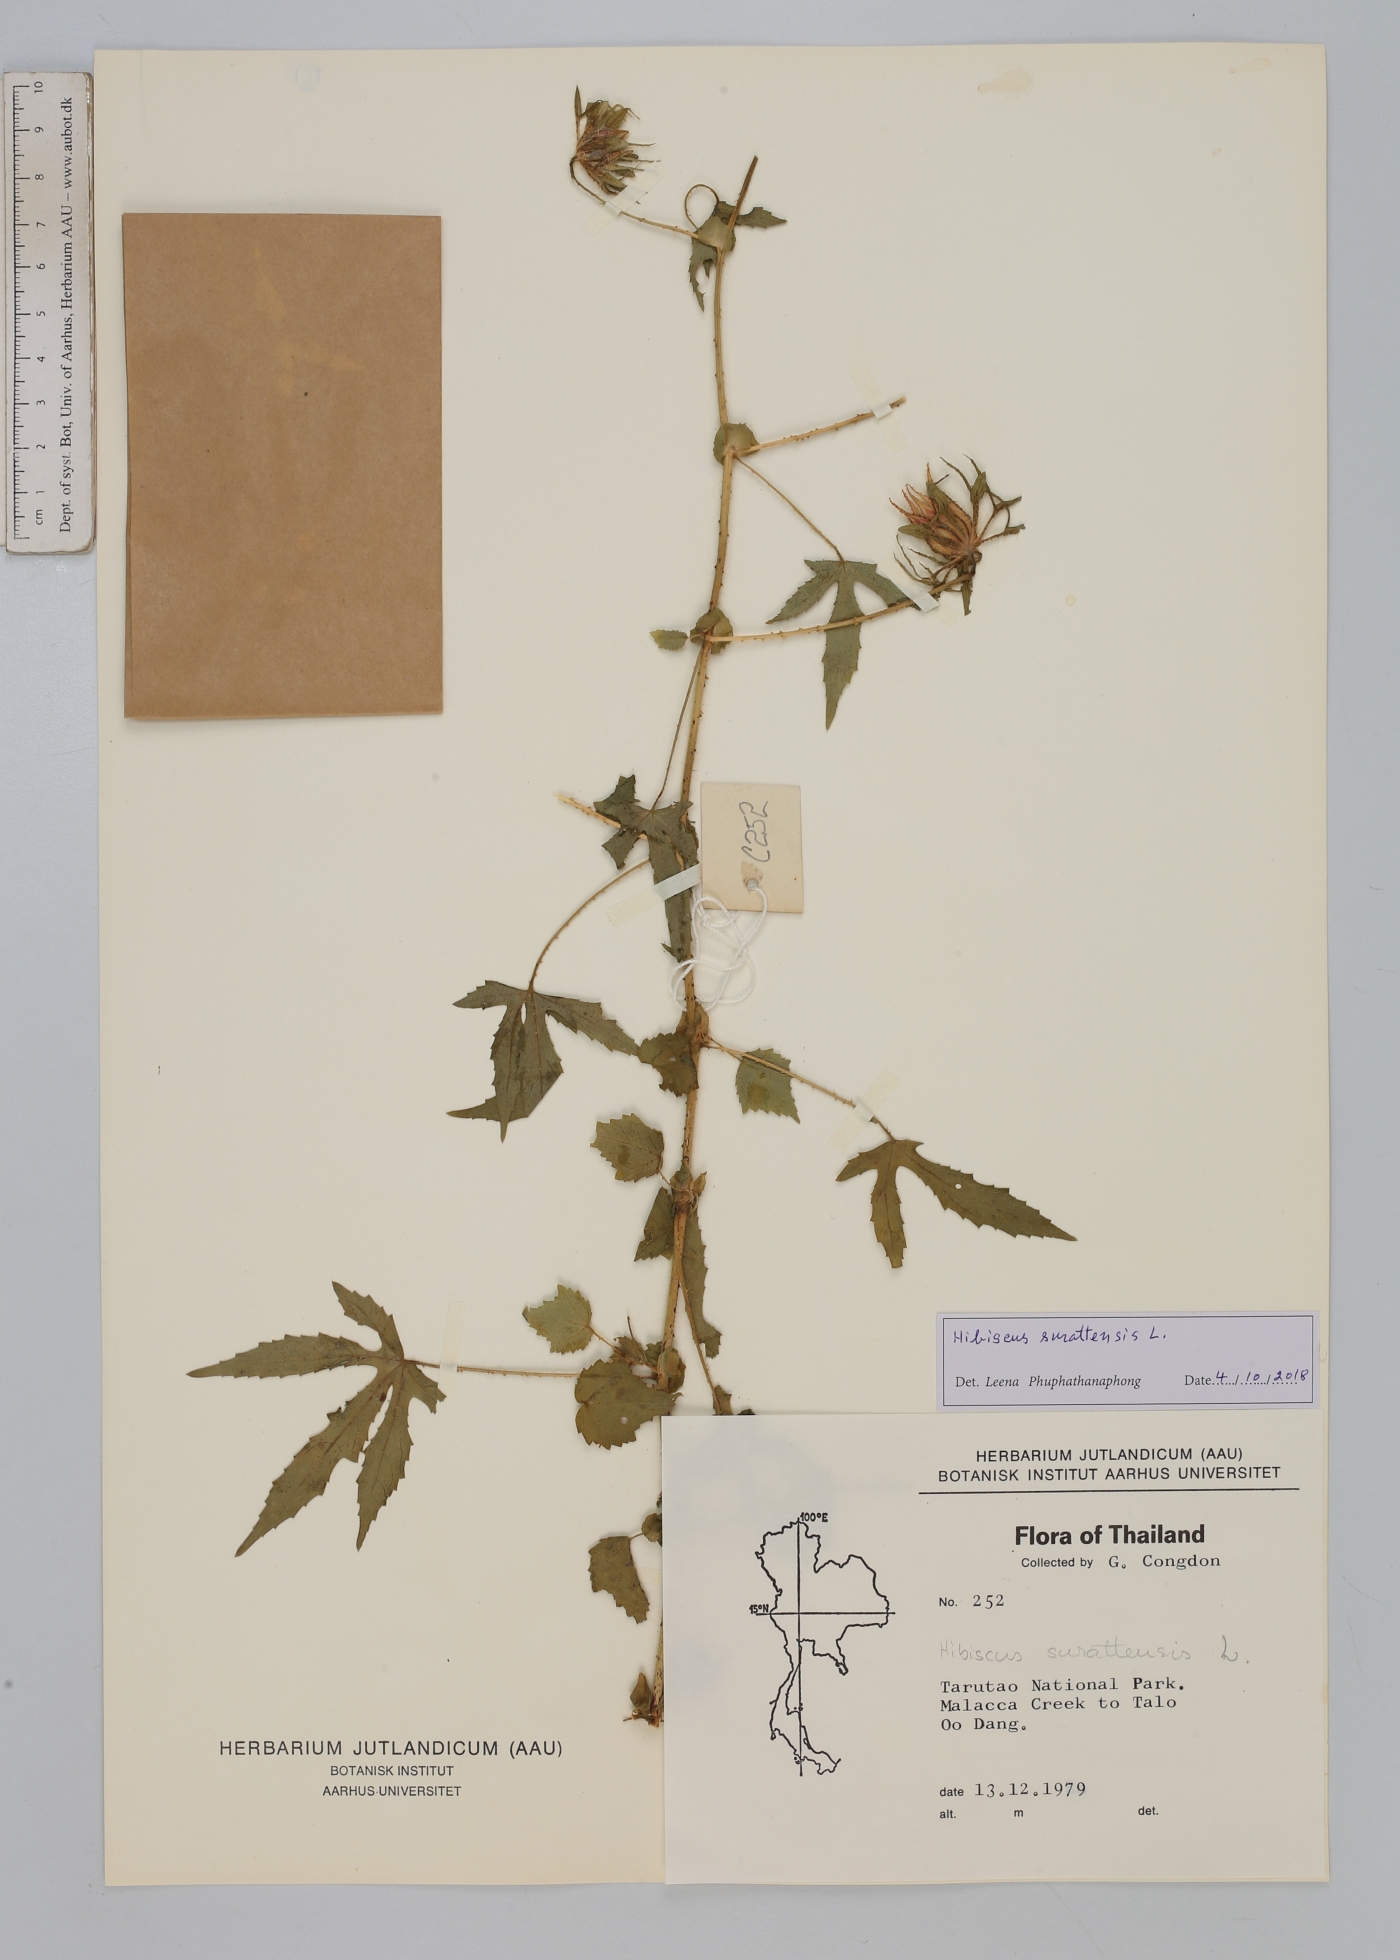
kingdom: Plantae
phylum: Tracheophyta
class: Magnoliopsida
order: Malvales
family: Malvaceae
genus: Hibiscus
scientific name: Hibiscus surattensis
